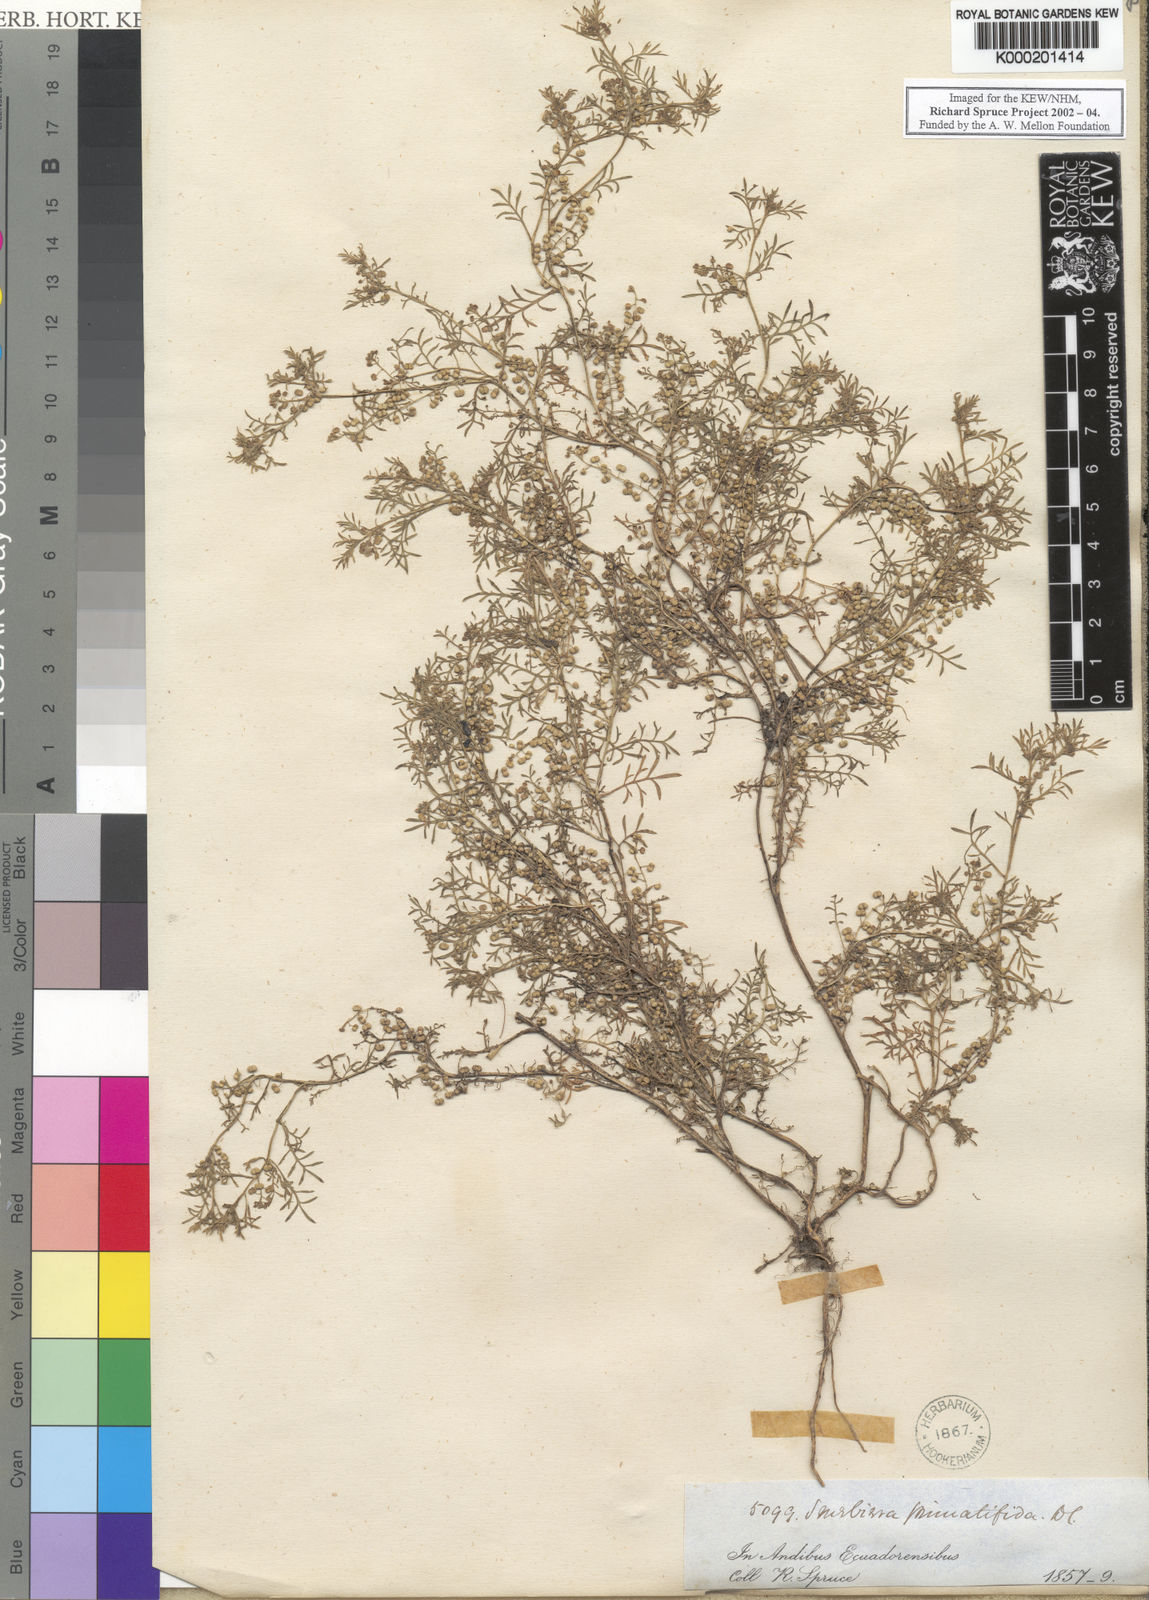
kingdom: Plantae
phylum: Tracheophyta
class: Magnoliopsida
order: Brassicales
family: Brassicaceae
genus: Lepidium
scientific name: Lepidium didymum
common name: Lesser swinecress
